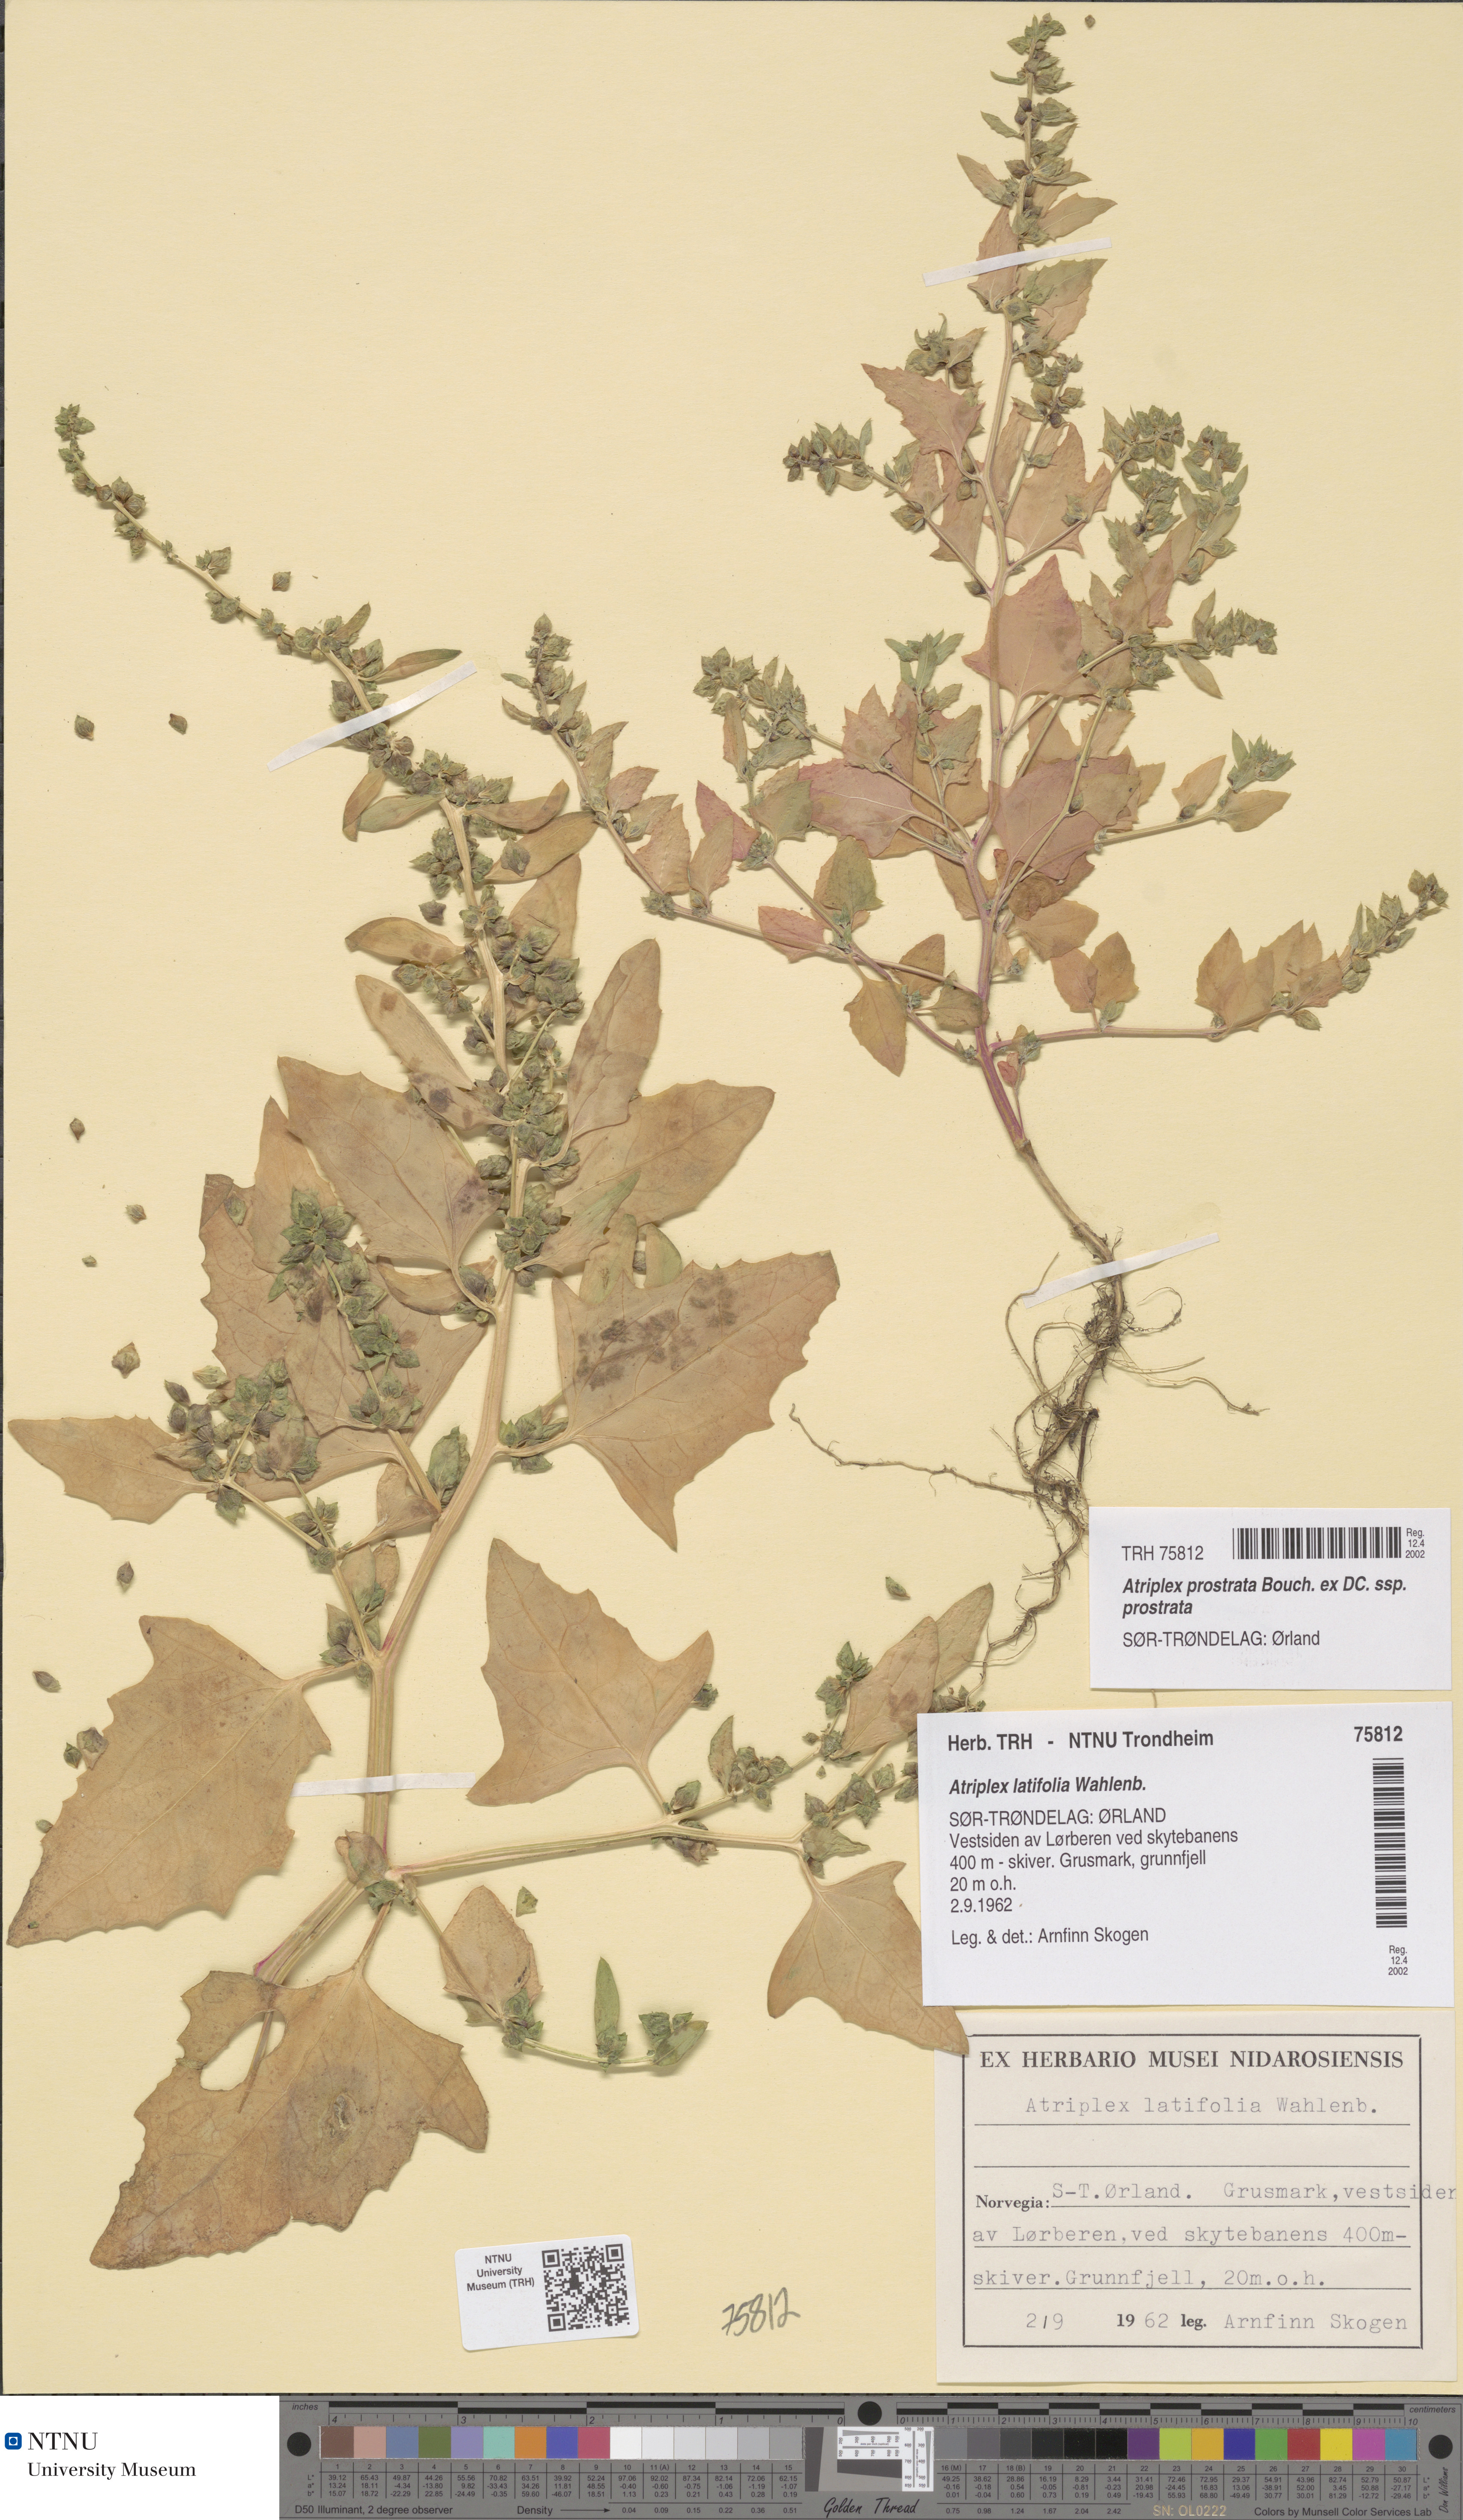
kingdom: Plantae
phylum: Tracheophyta
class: Magnoliopsida
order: Caryophyllales
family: Amaranthaceae
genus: Atriplex
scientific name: Atriplex prostrata
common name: Spear-leaved orache
